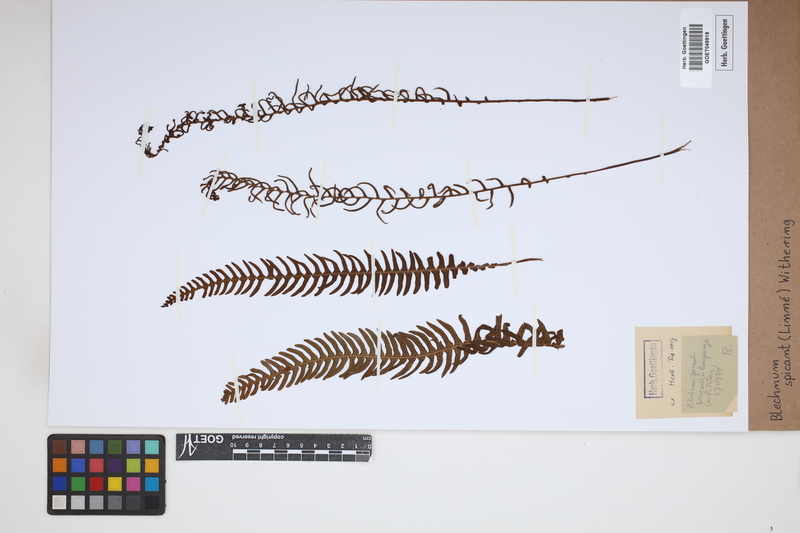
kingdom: Plantae
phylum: Tracheophyta
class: Polypodiopsida
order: Polypodiales
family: Blechnaceae
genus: Struthiopteris
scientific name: Struthiopteris spicant
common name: Deer fern
